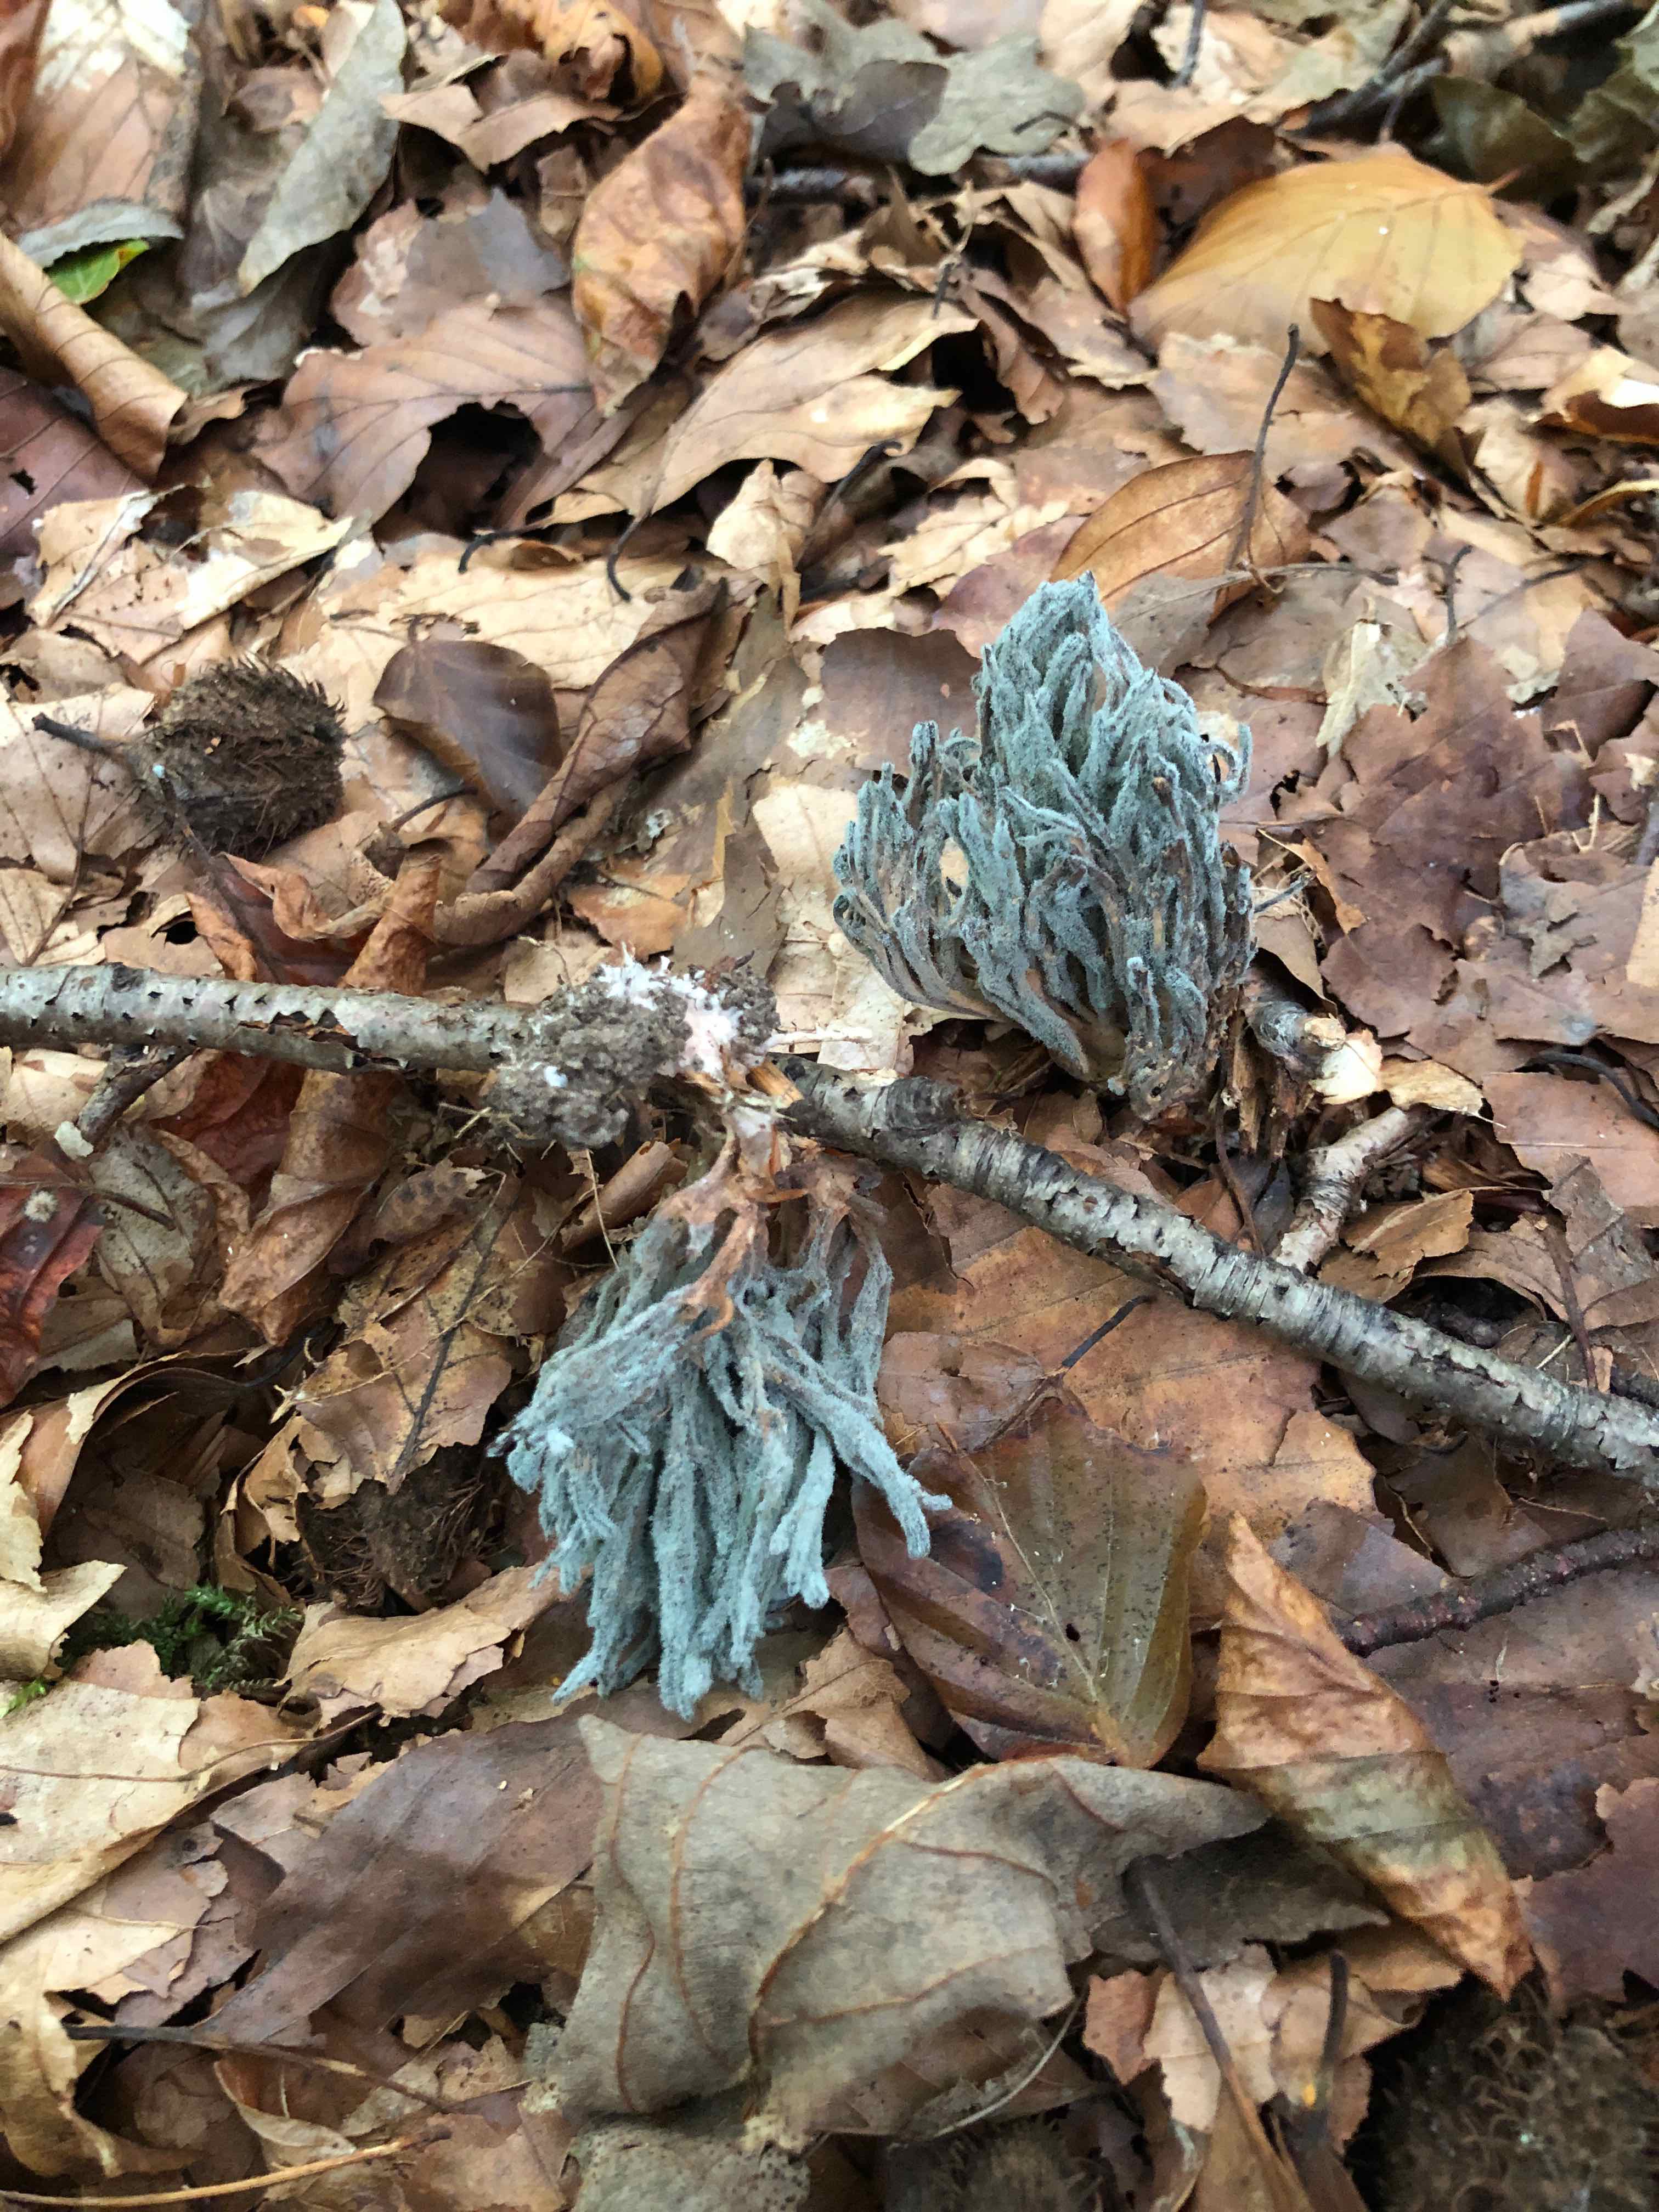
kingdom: Fungi
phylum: Ascomycota
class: Eurotiomycetes
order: Eurotiales
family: Aspergillaceae
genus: Penicillium
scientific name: Penicillium
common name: penselskimmel
